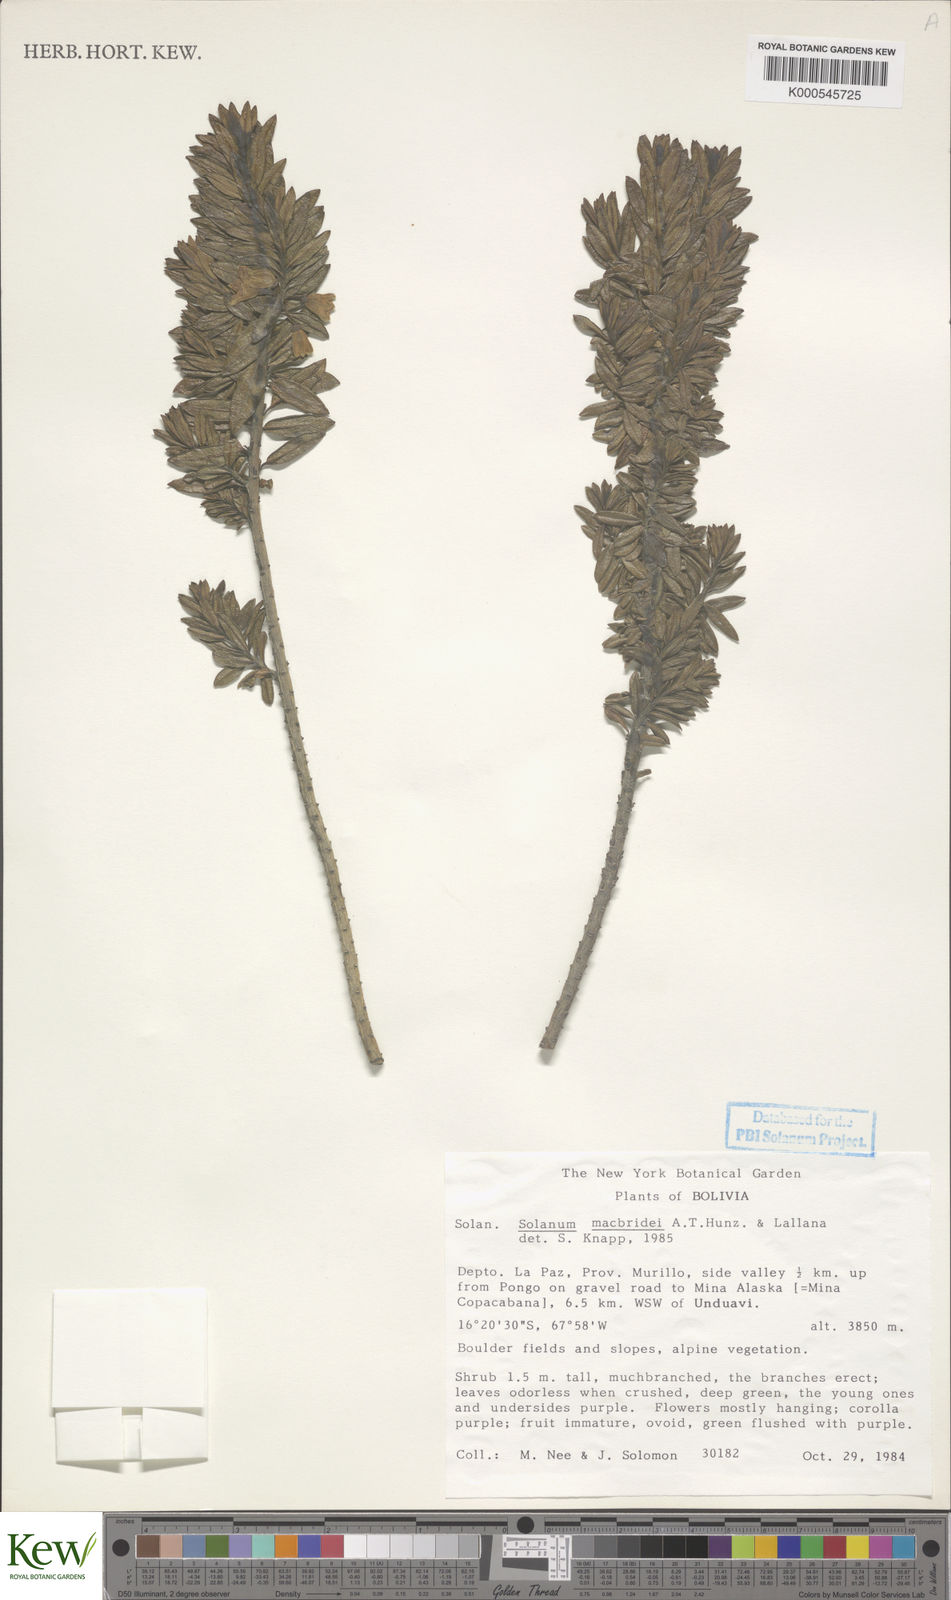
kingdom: Plantae
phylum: Tracheophyta
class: Magnoliopsida
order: Solanales
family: Solanaceae
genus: Solanum
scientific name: Solanum macbridei
